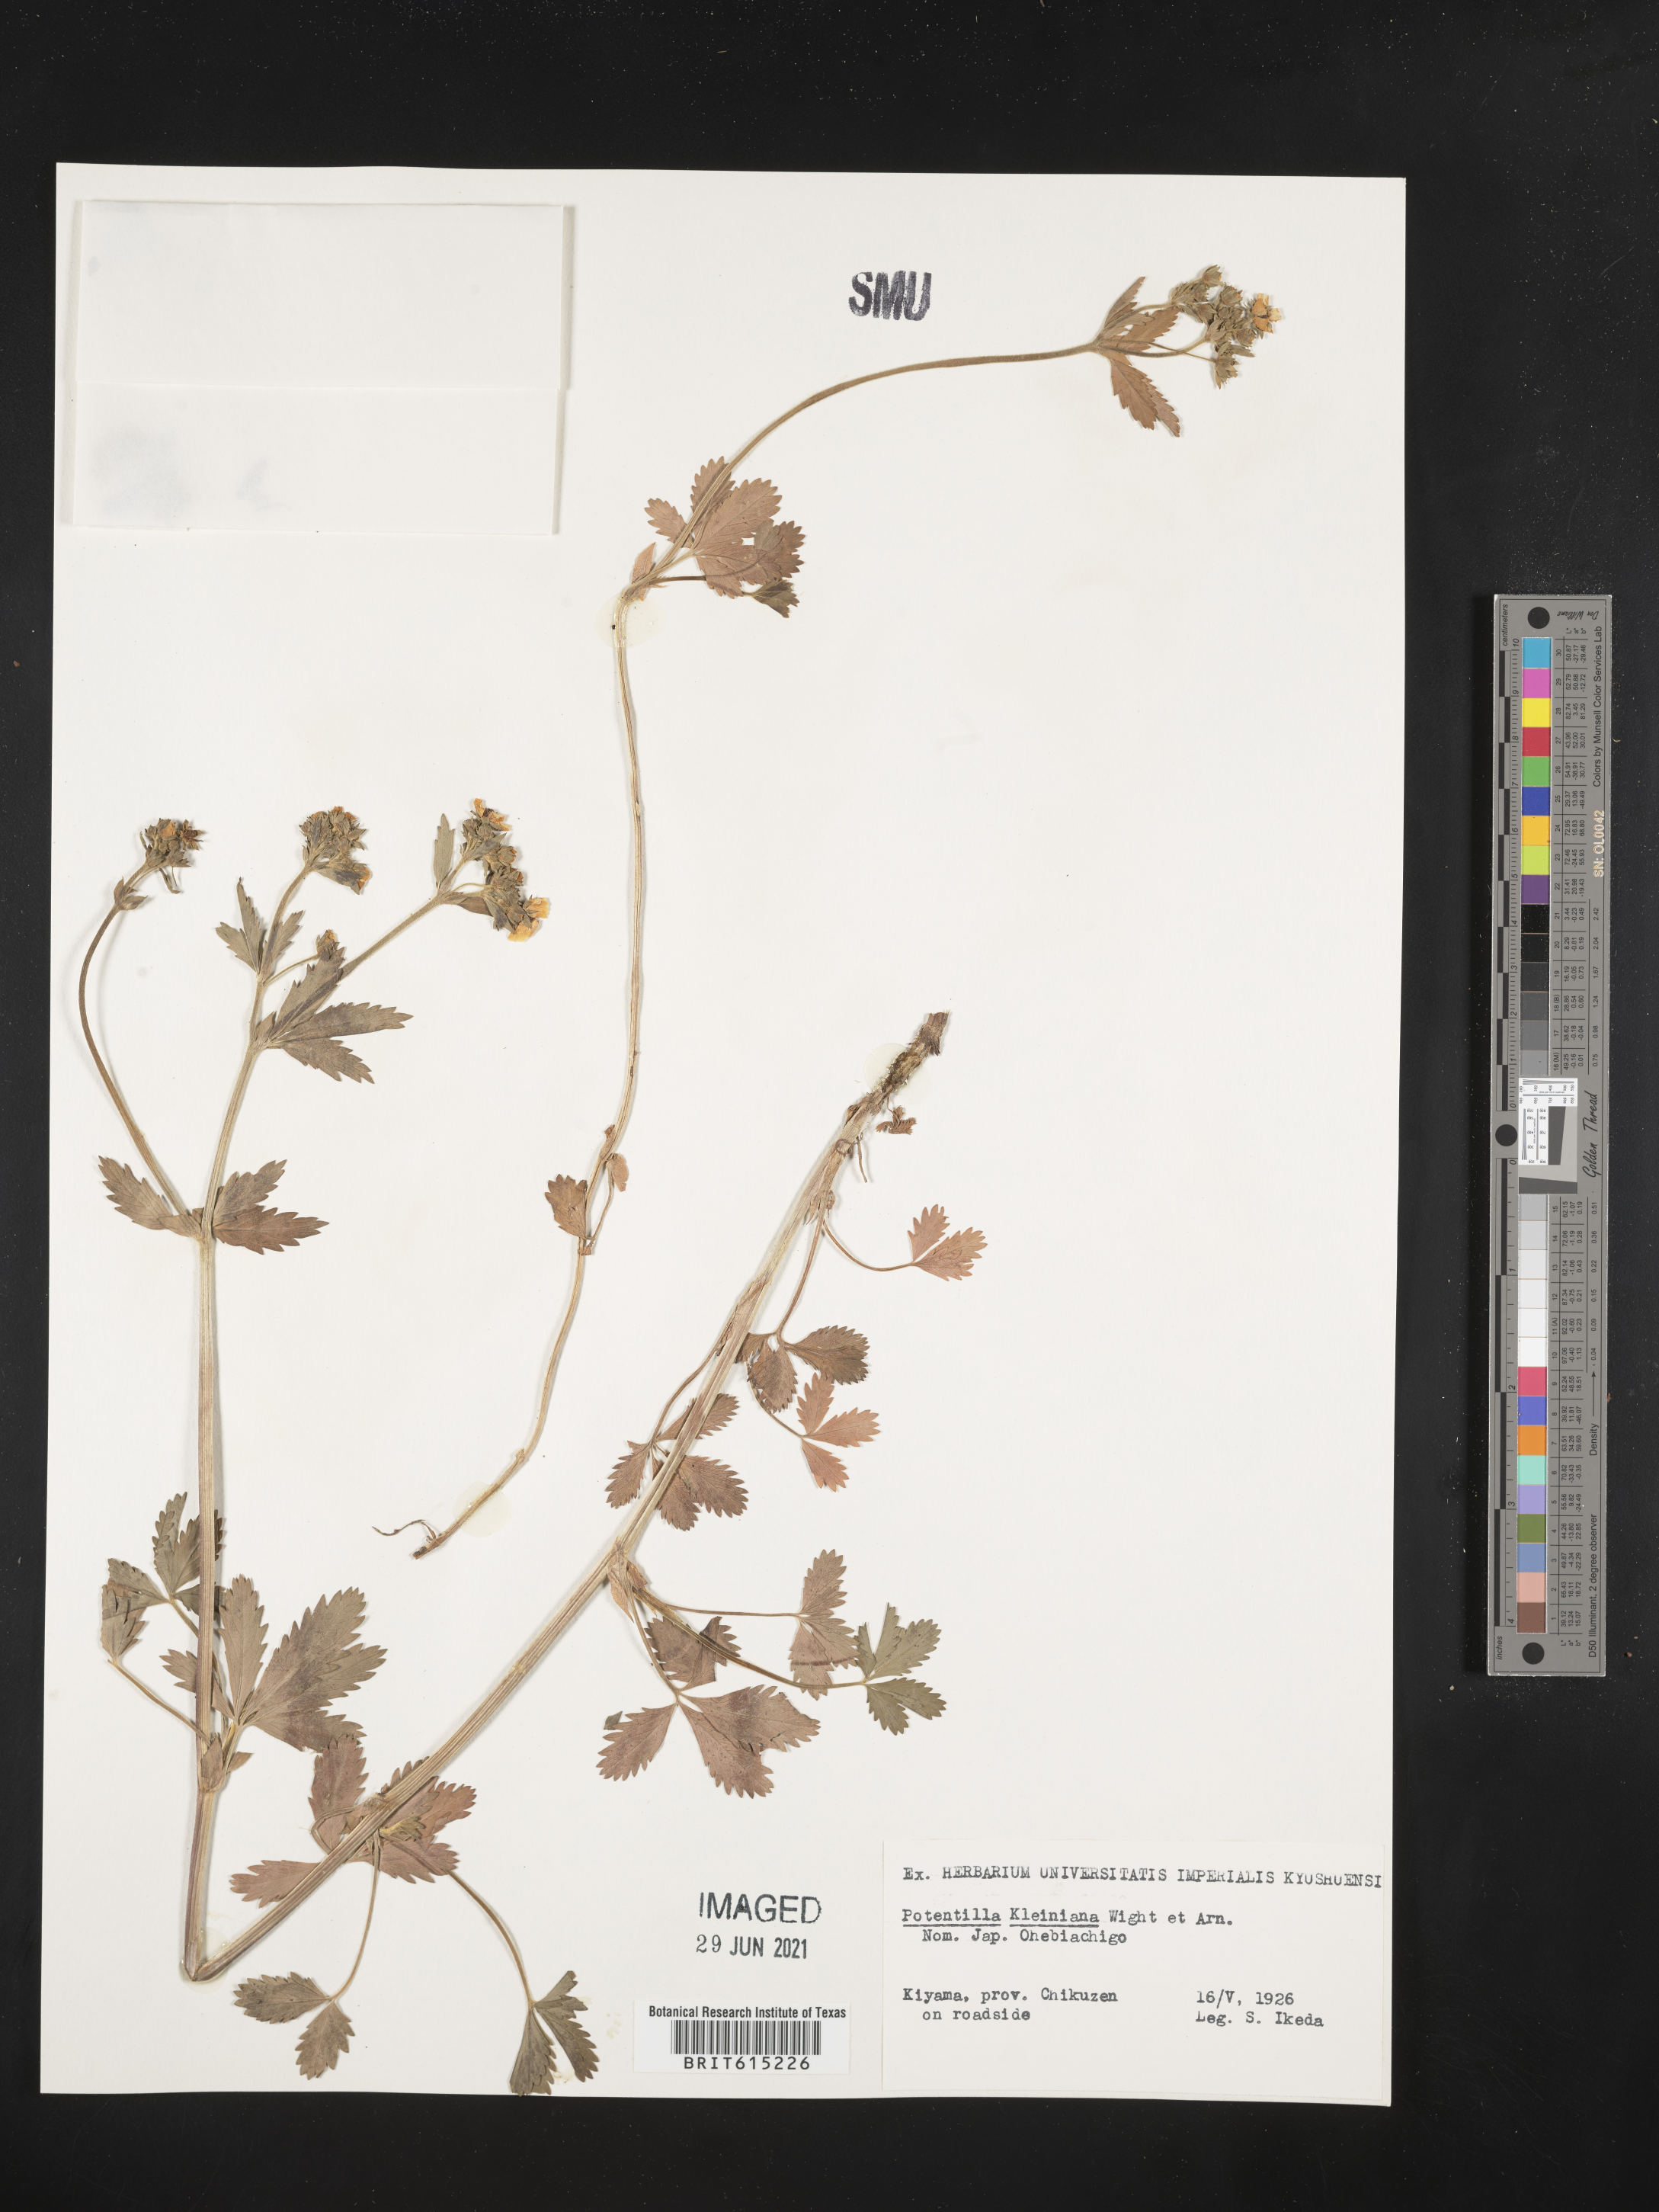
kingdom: Plantae
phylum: Tracheophyta
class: Magnoliopsida
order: Rosales
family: Rosaceae
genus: Potentilla
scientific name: Potentilla sundaica
